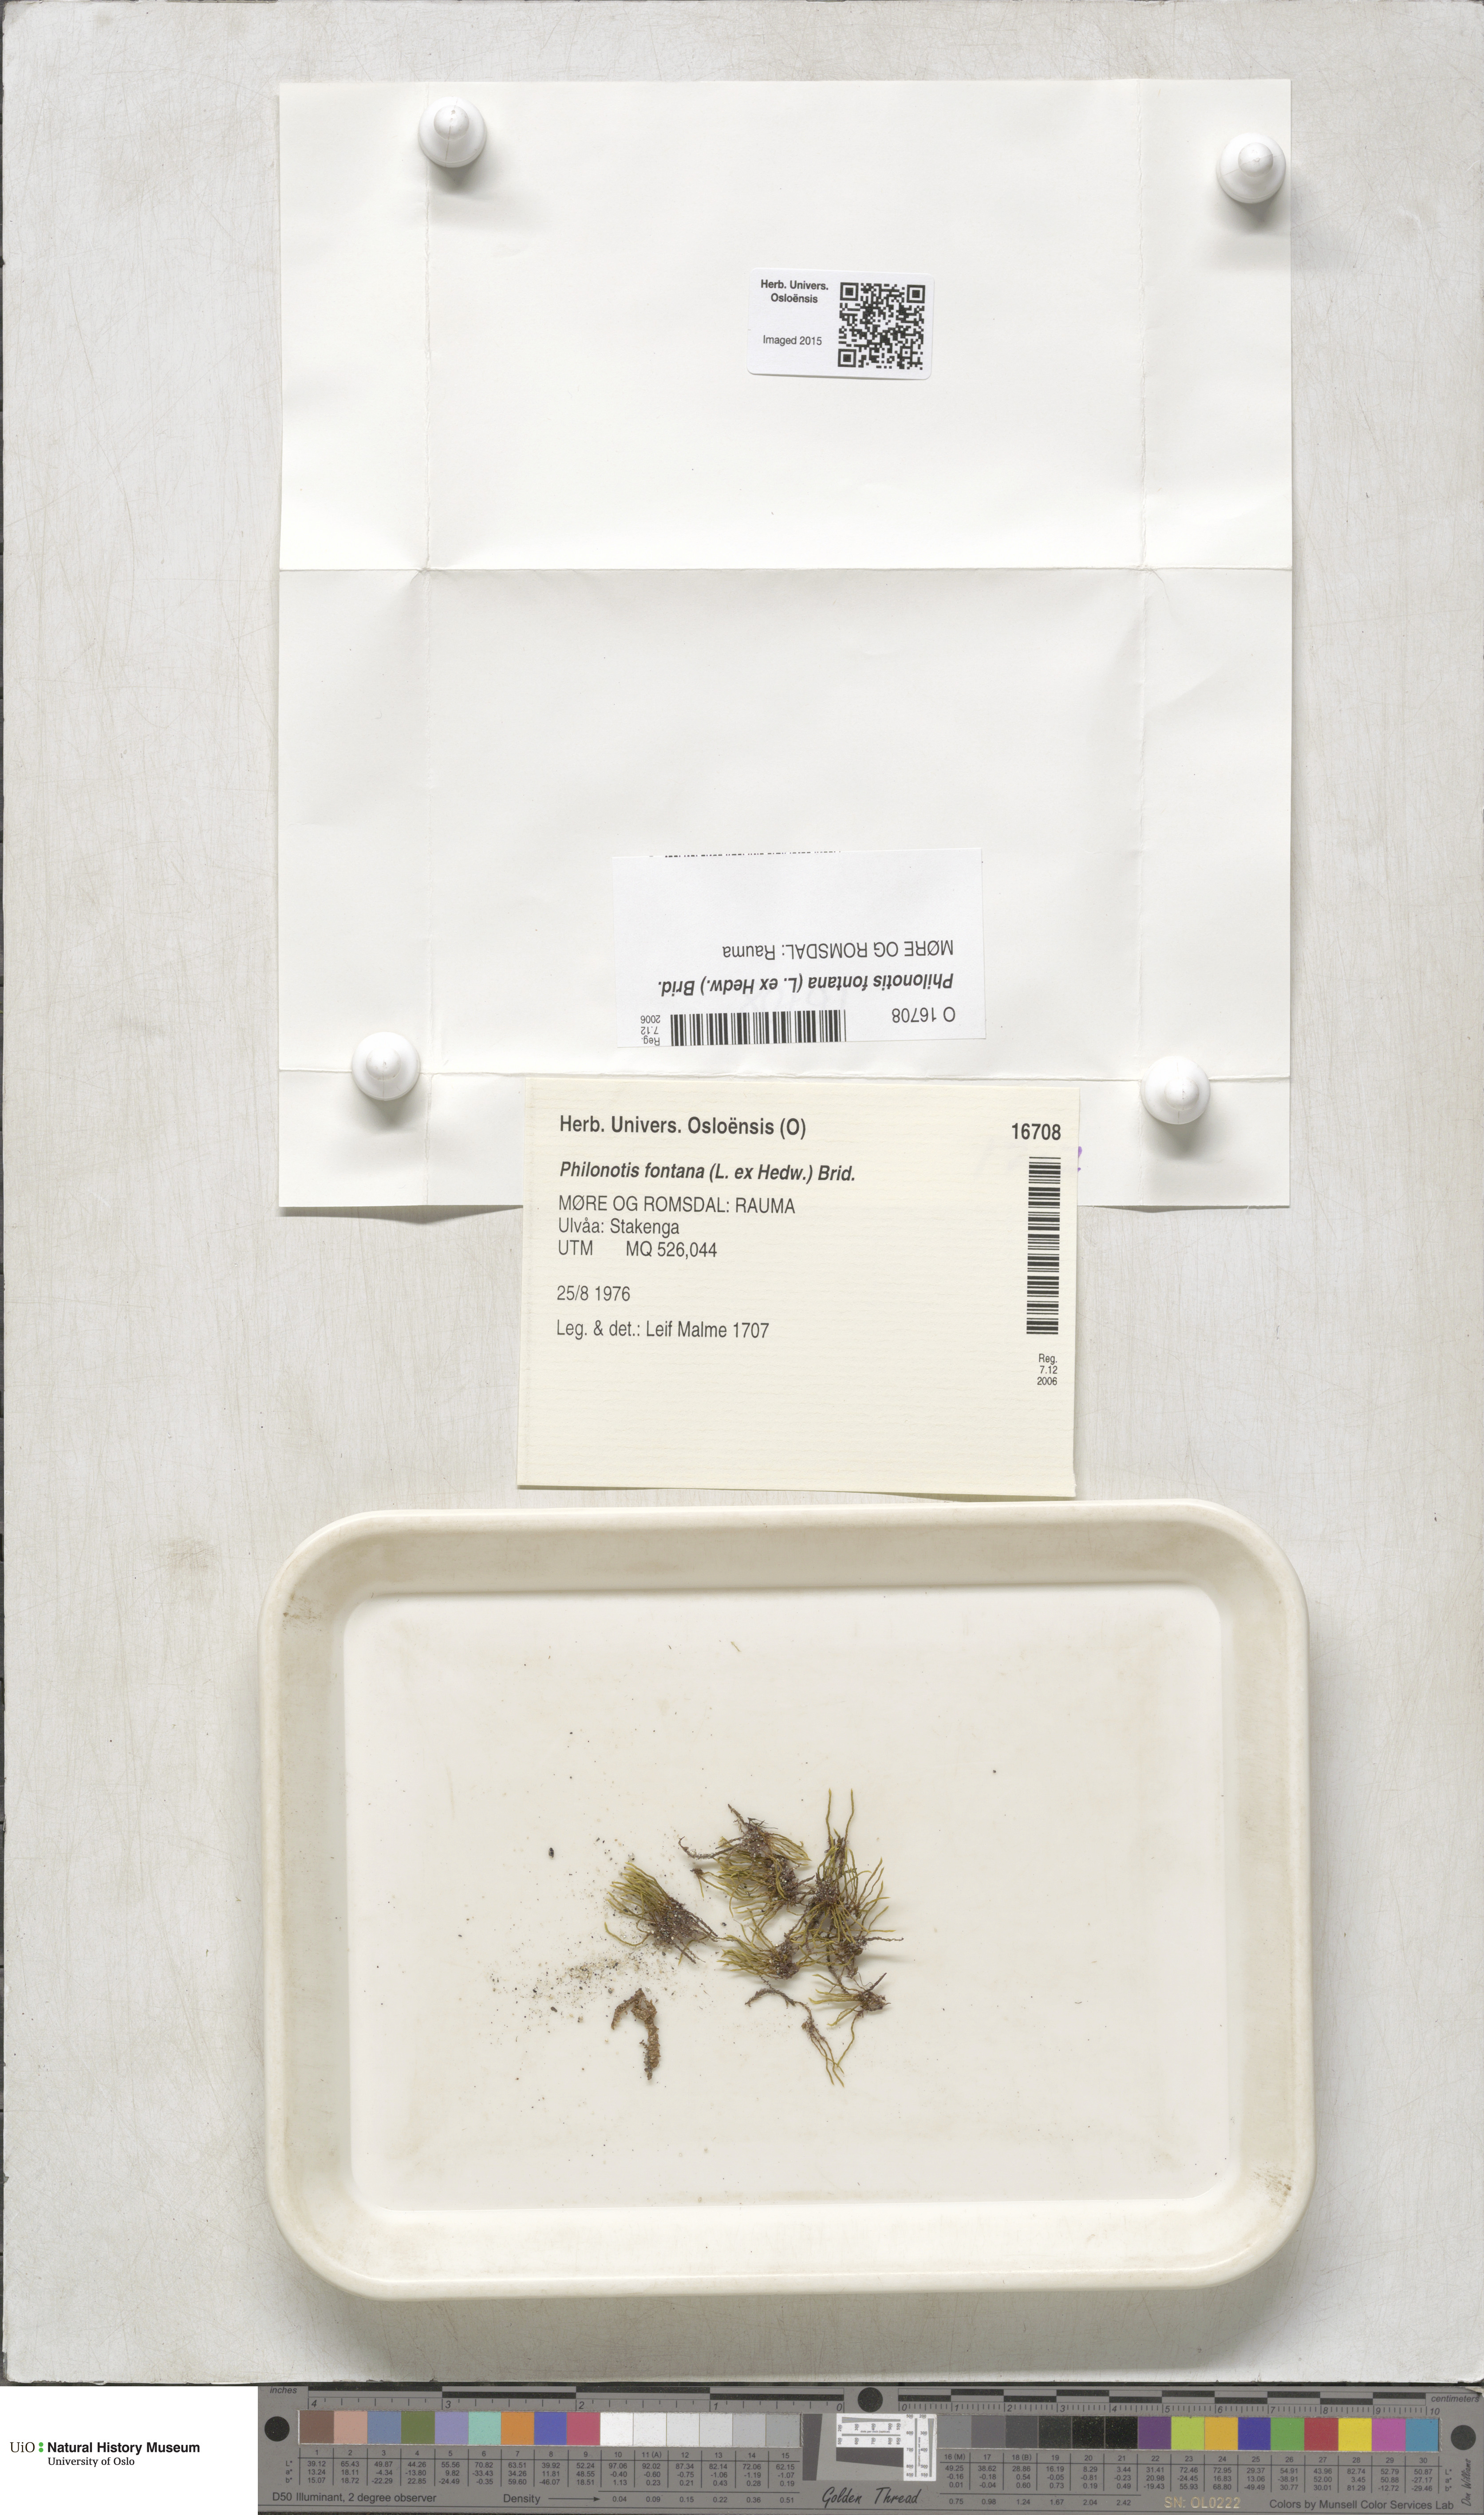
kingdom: Plantae
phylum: Bryophyta
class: Bryopsida
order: Bartramiales
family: Bartramiaceae
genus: Philonotis
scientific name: Philonotis fontana
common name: Fountain apple-moss
